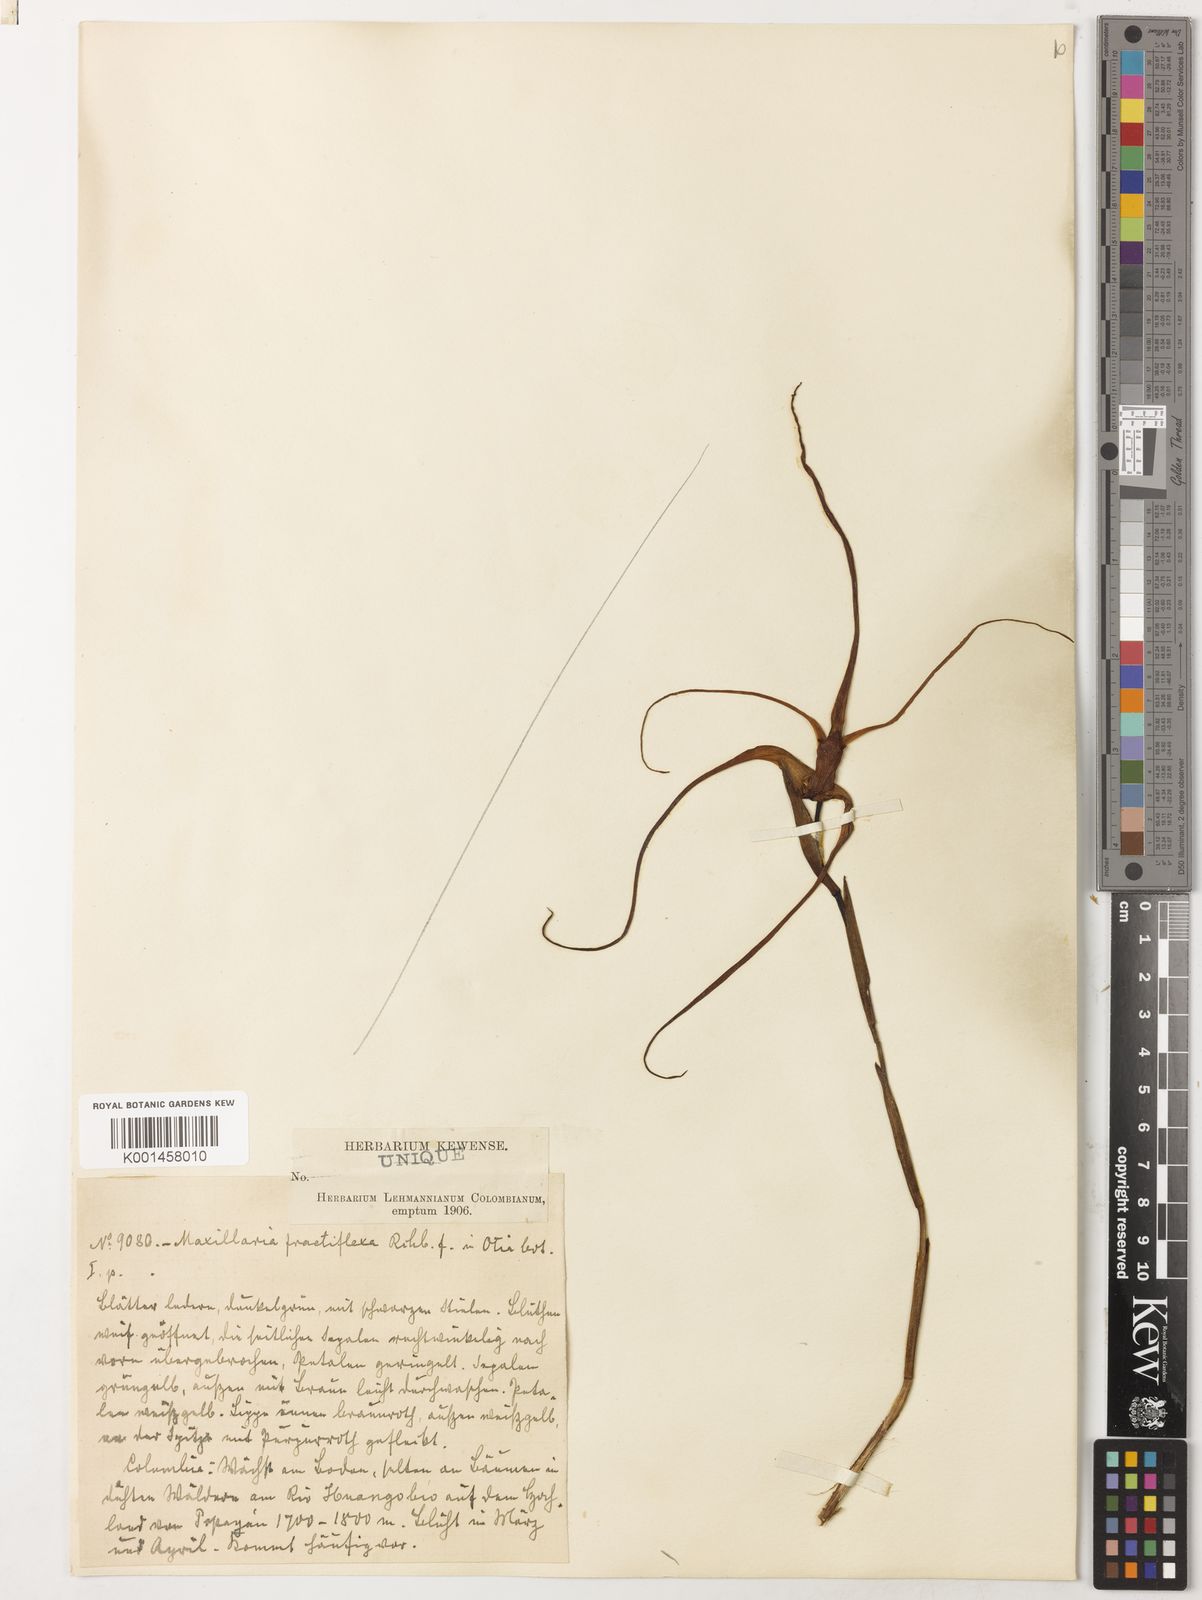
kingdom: Plantae
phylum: Tracheophyta
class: Liliopsida
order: Asparagales
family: Orchidaceae
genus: Maxillaria
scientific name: Maxillaria fractiflexa
